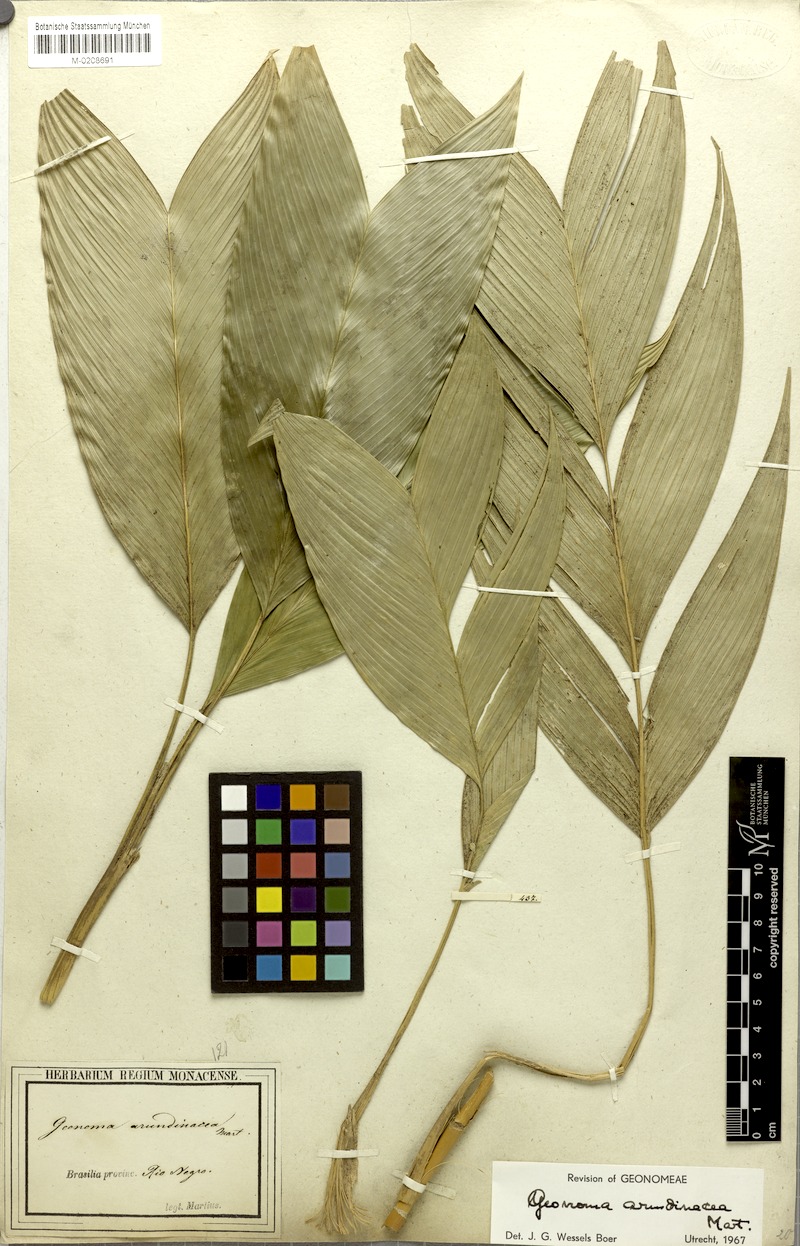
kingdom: Plantae
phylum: Tracheophyta
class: Liliopsida
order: Arecales
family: Arecaceae
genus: Geonoma
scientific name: Geonoma stricta
